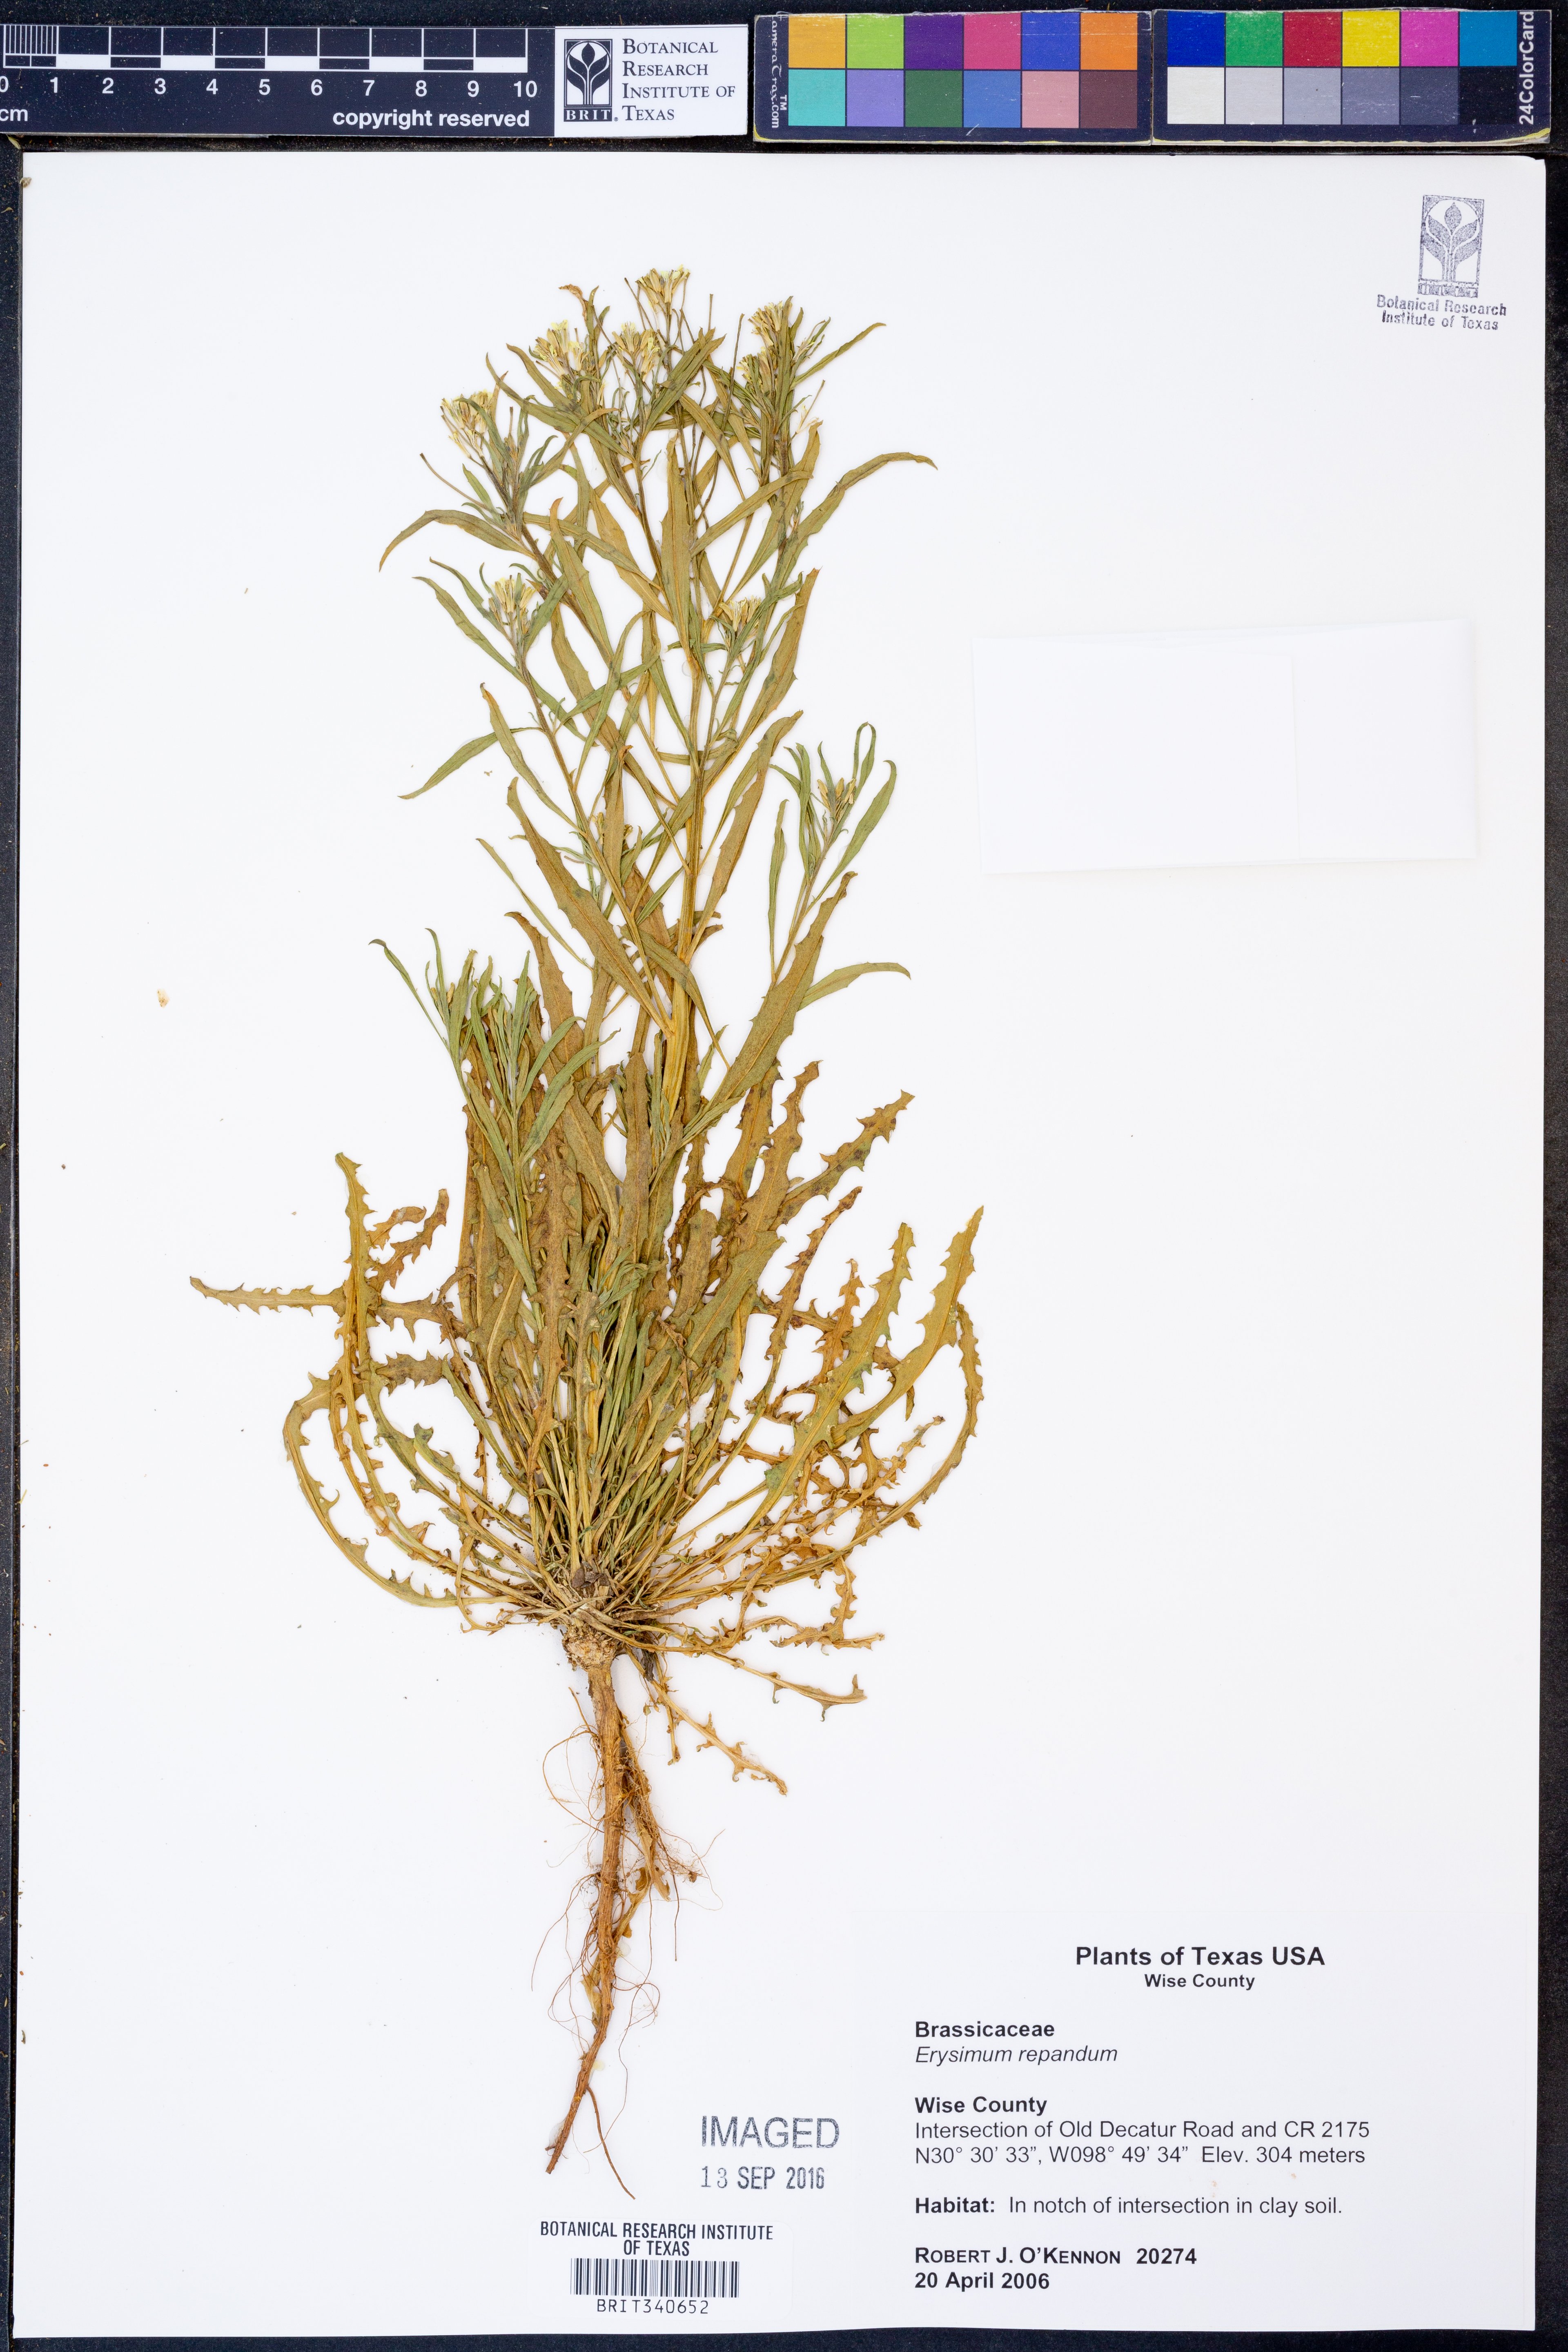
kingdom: Plantae
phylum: Tracheophyta
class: Magnoliopsida
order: Brassicales
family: Brassicaceae
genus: Erysimum
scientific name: Erysimum repandum
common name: Spreading wallflower
